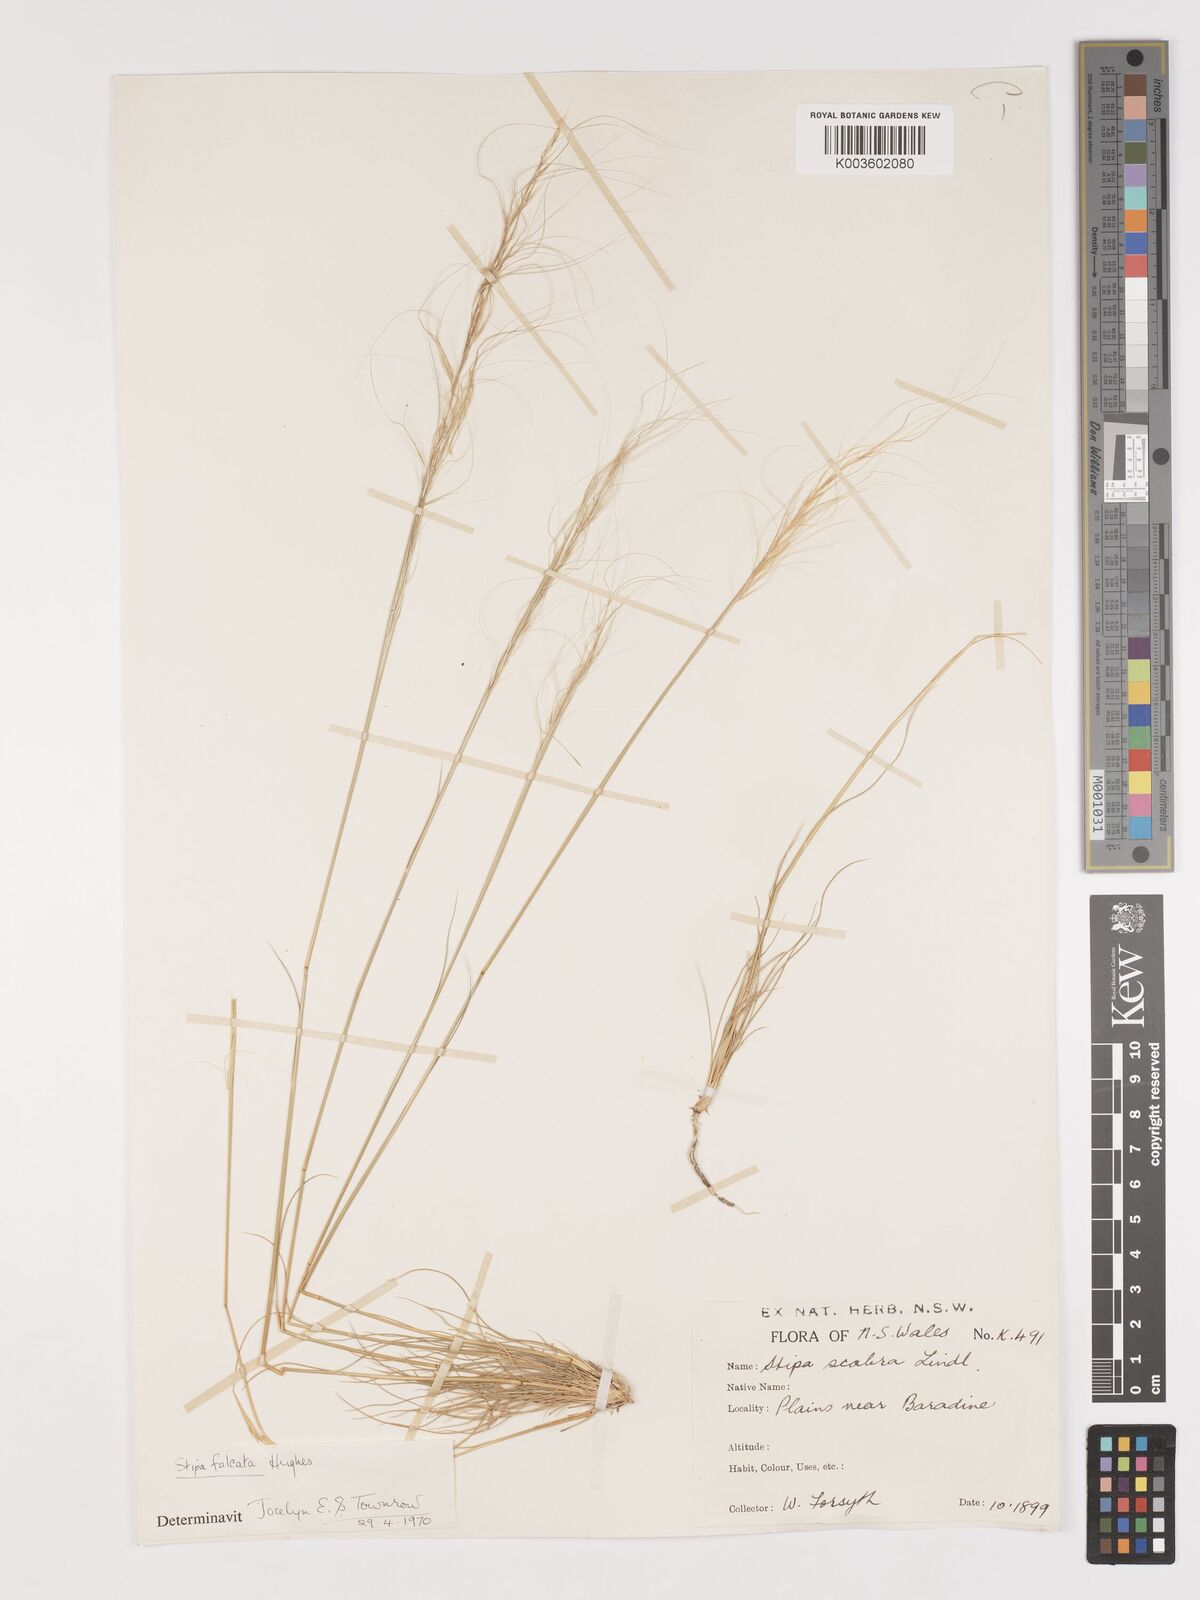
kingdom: Plantae
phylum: Tracheophyta
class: Liliopsida
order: Poales
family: Poaceae
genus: Austrostipa
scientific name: Austrostipa scabra
